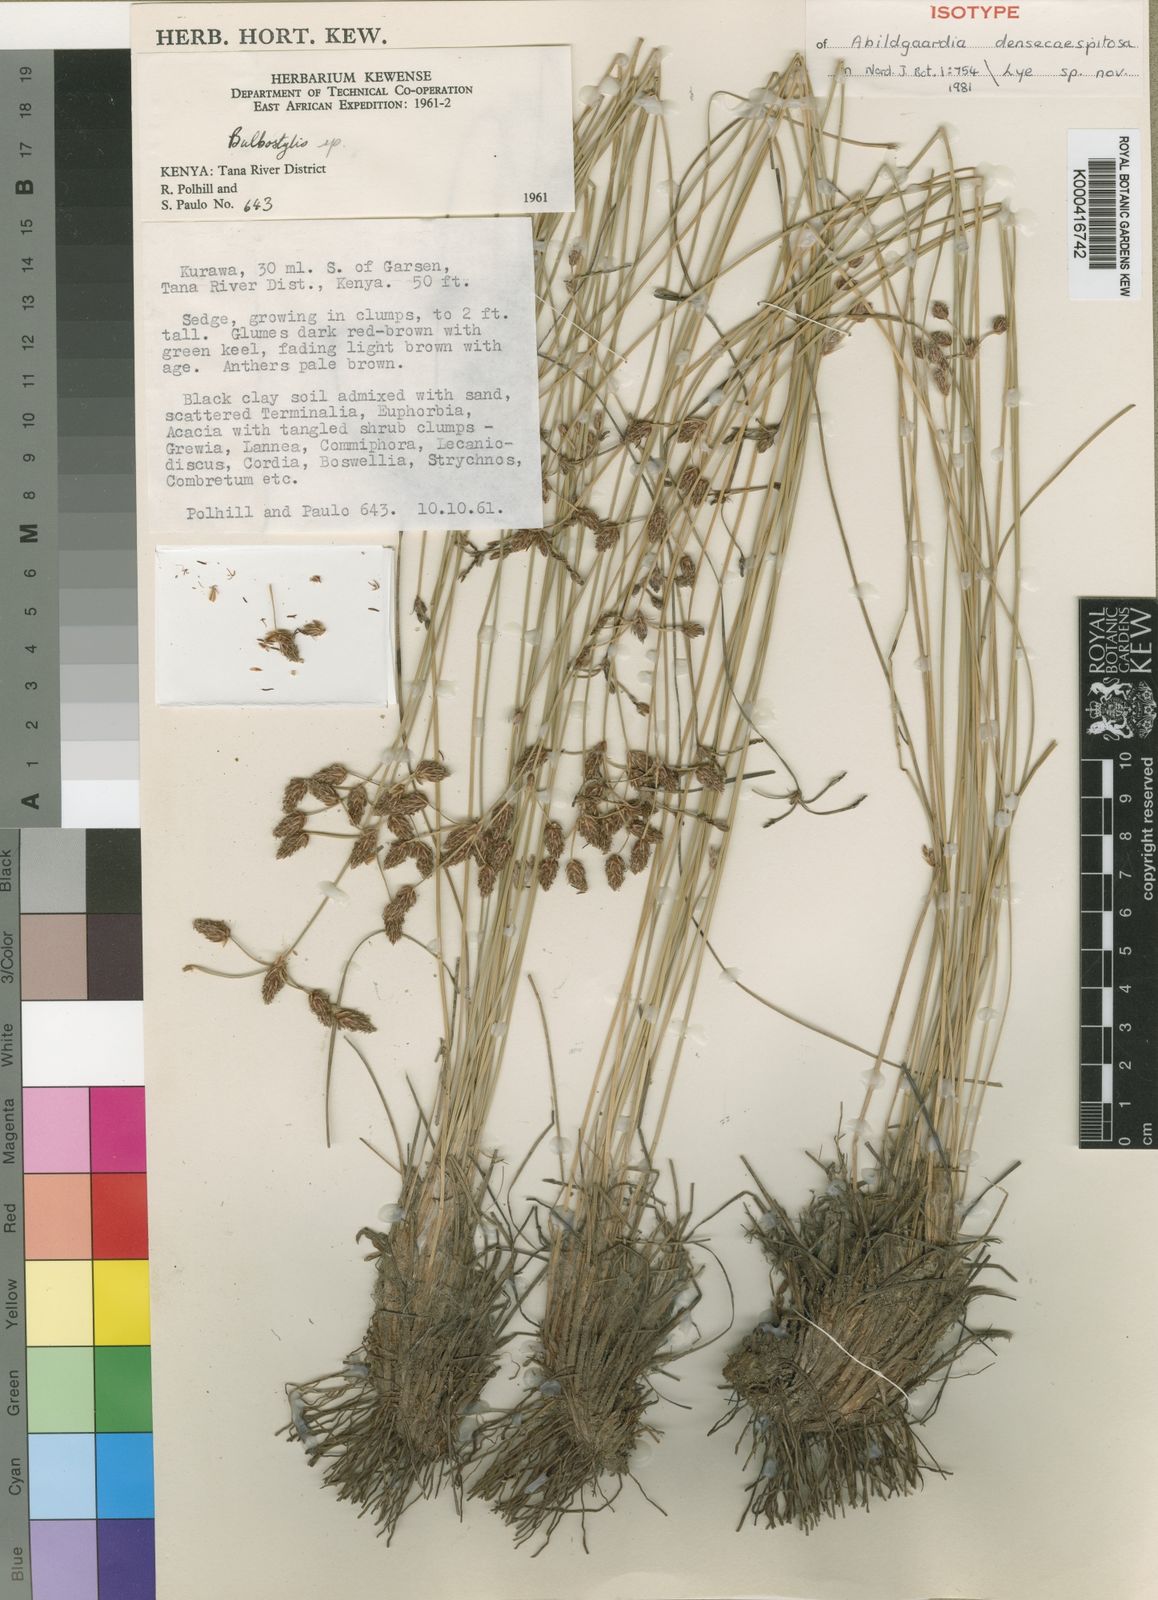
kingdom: Plantae
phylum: Tracheophyta
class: Liliopsida
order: Poales
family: Cyperaceae
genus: Bulbostylis
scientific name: Bulbostylis
